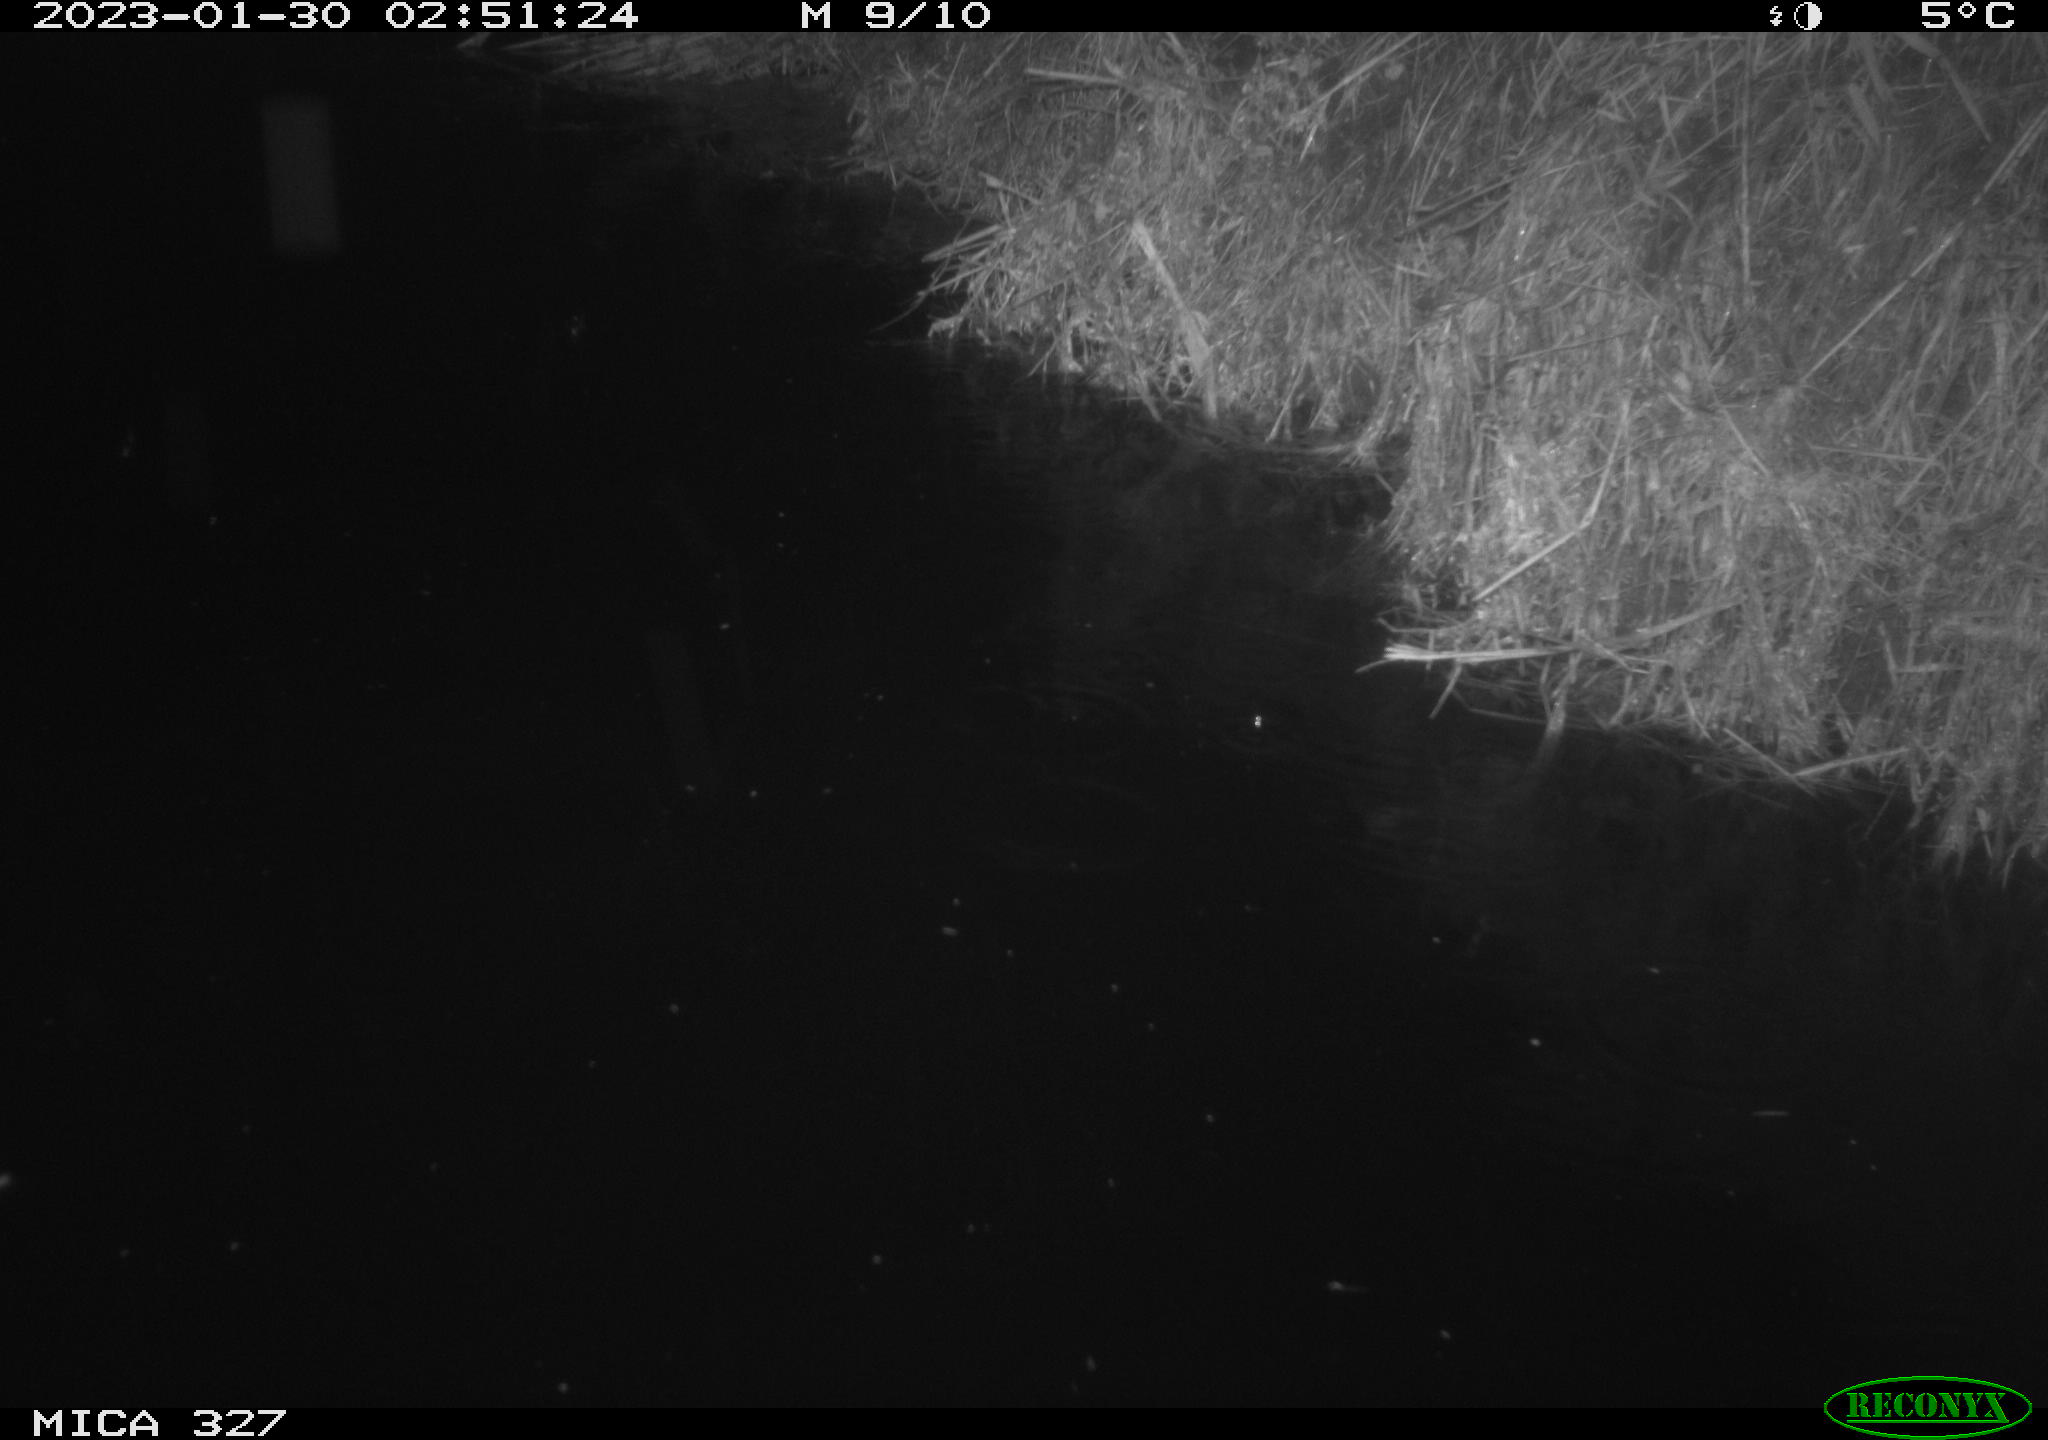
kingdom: Animalia
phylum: Chordata
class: Mammalia
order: Rodentia
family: Cricetidae
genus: Ondatra
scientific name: Ondatra zibethicus
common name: Muskrat
